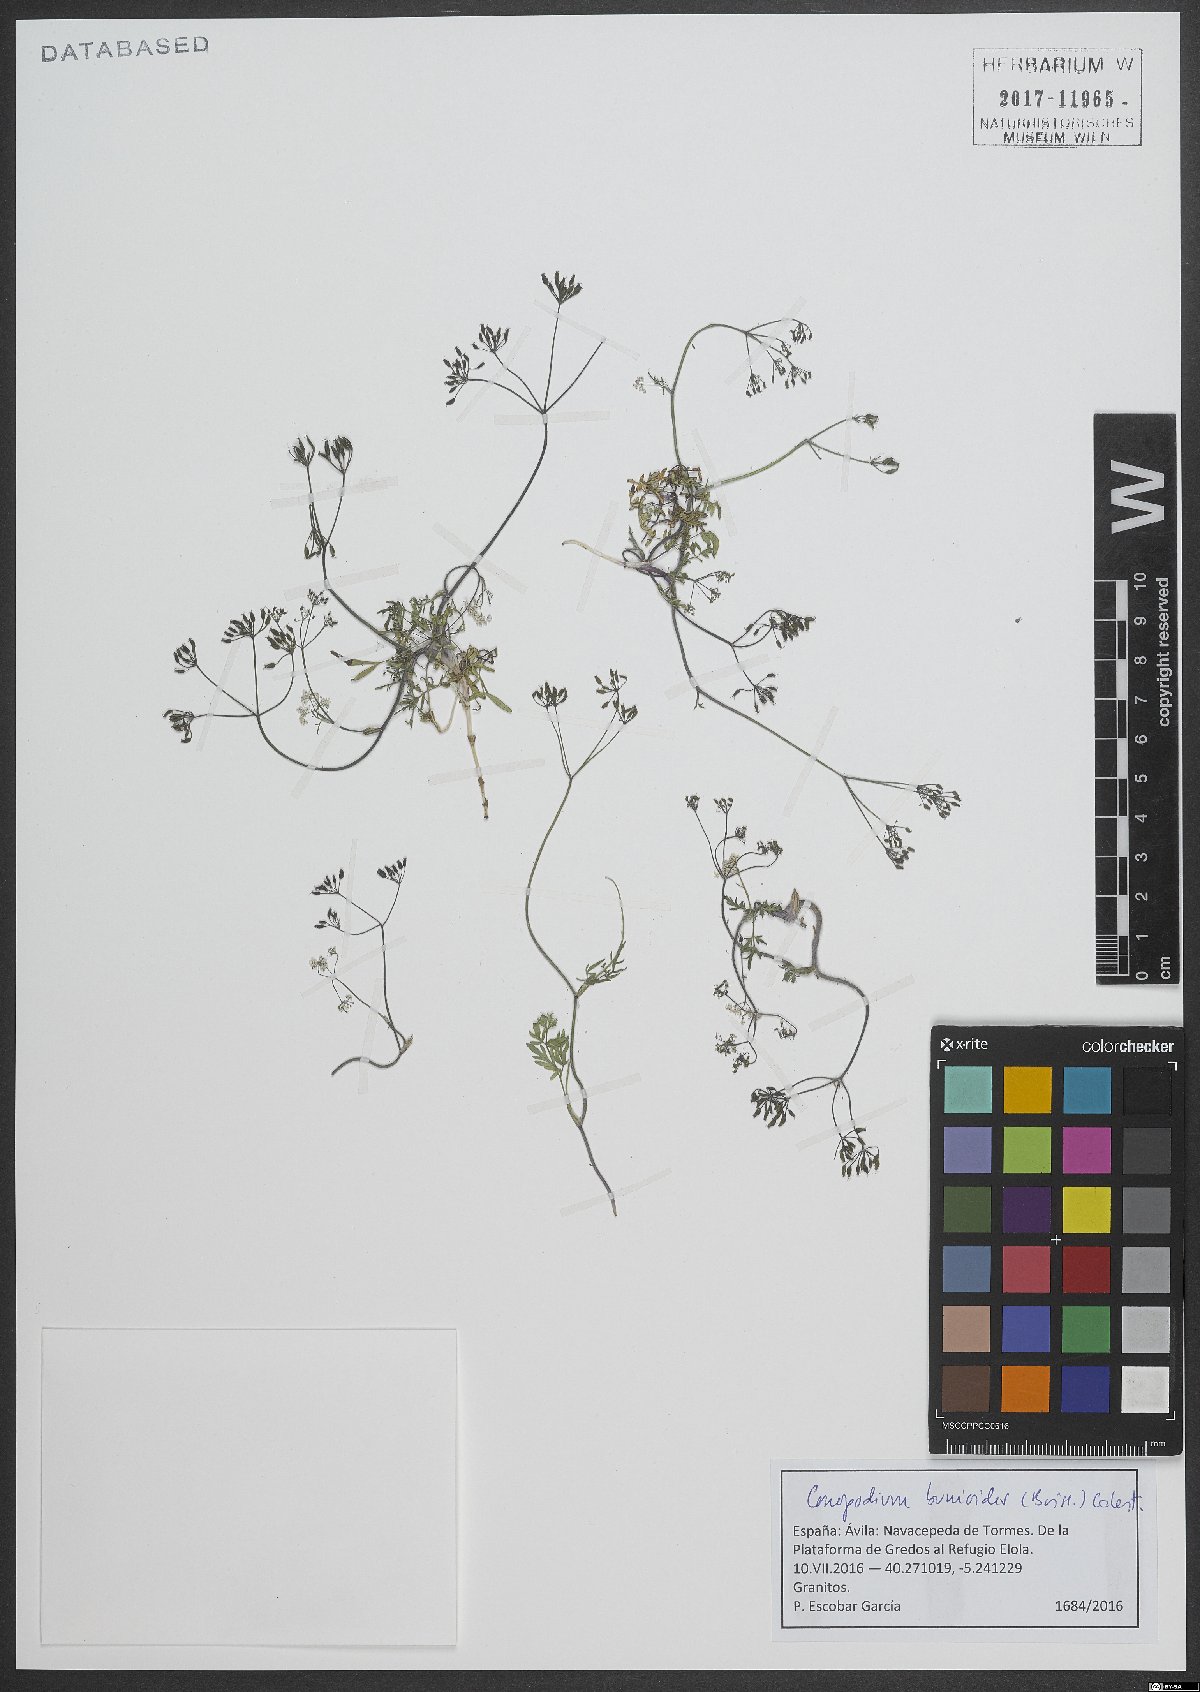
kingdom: Plantae
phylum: Tracheophyta
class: Magnoliopsida
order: Apiales
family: Apiaceae
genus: Conopodium
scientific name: Conopodium bunioides
